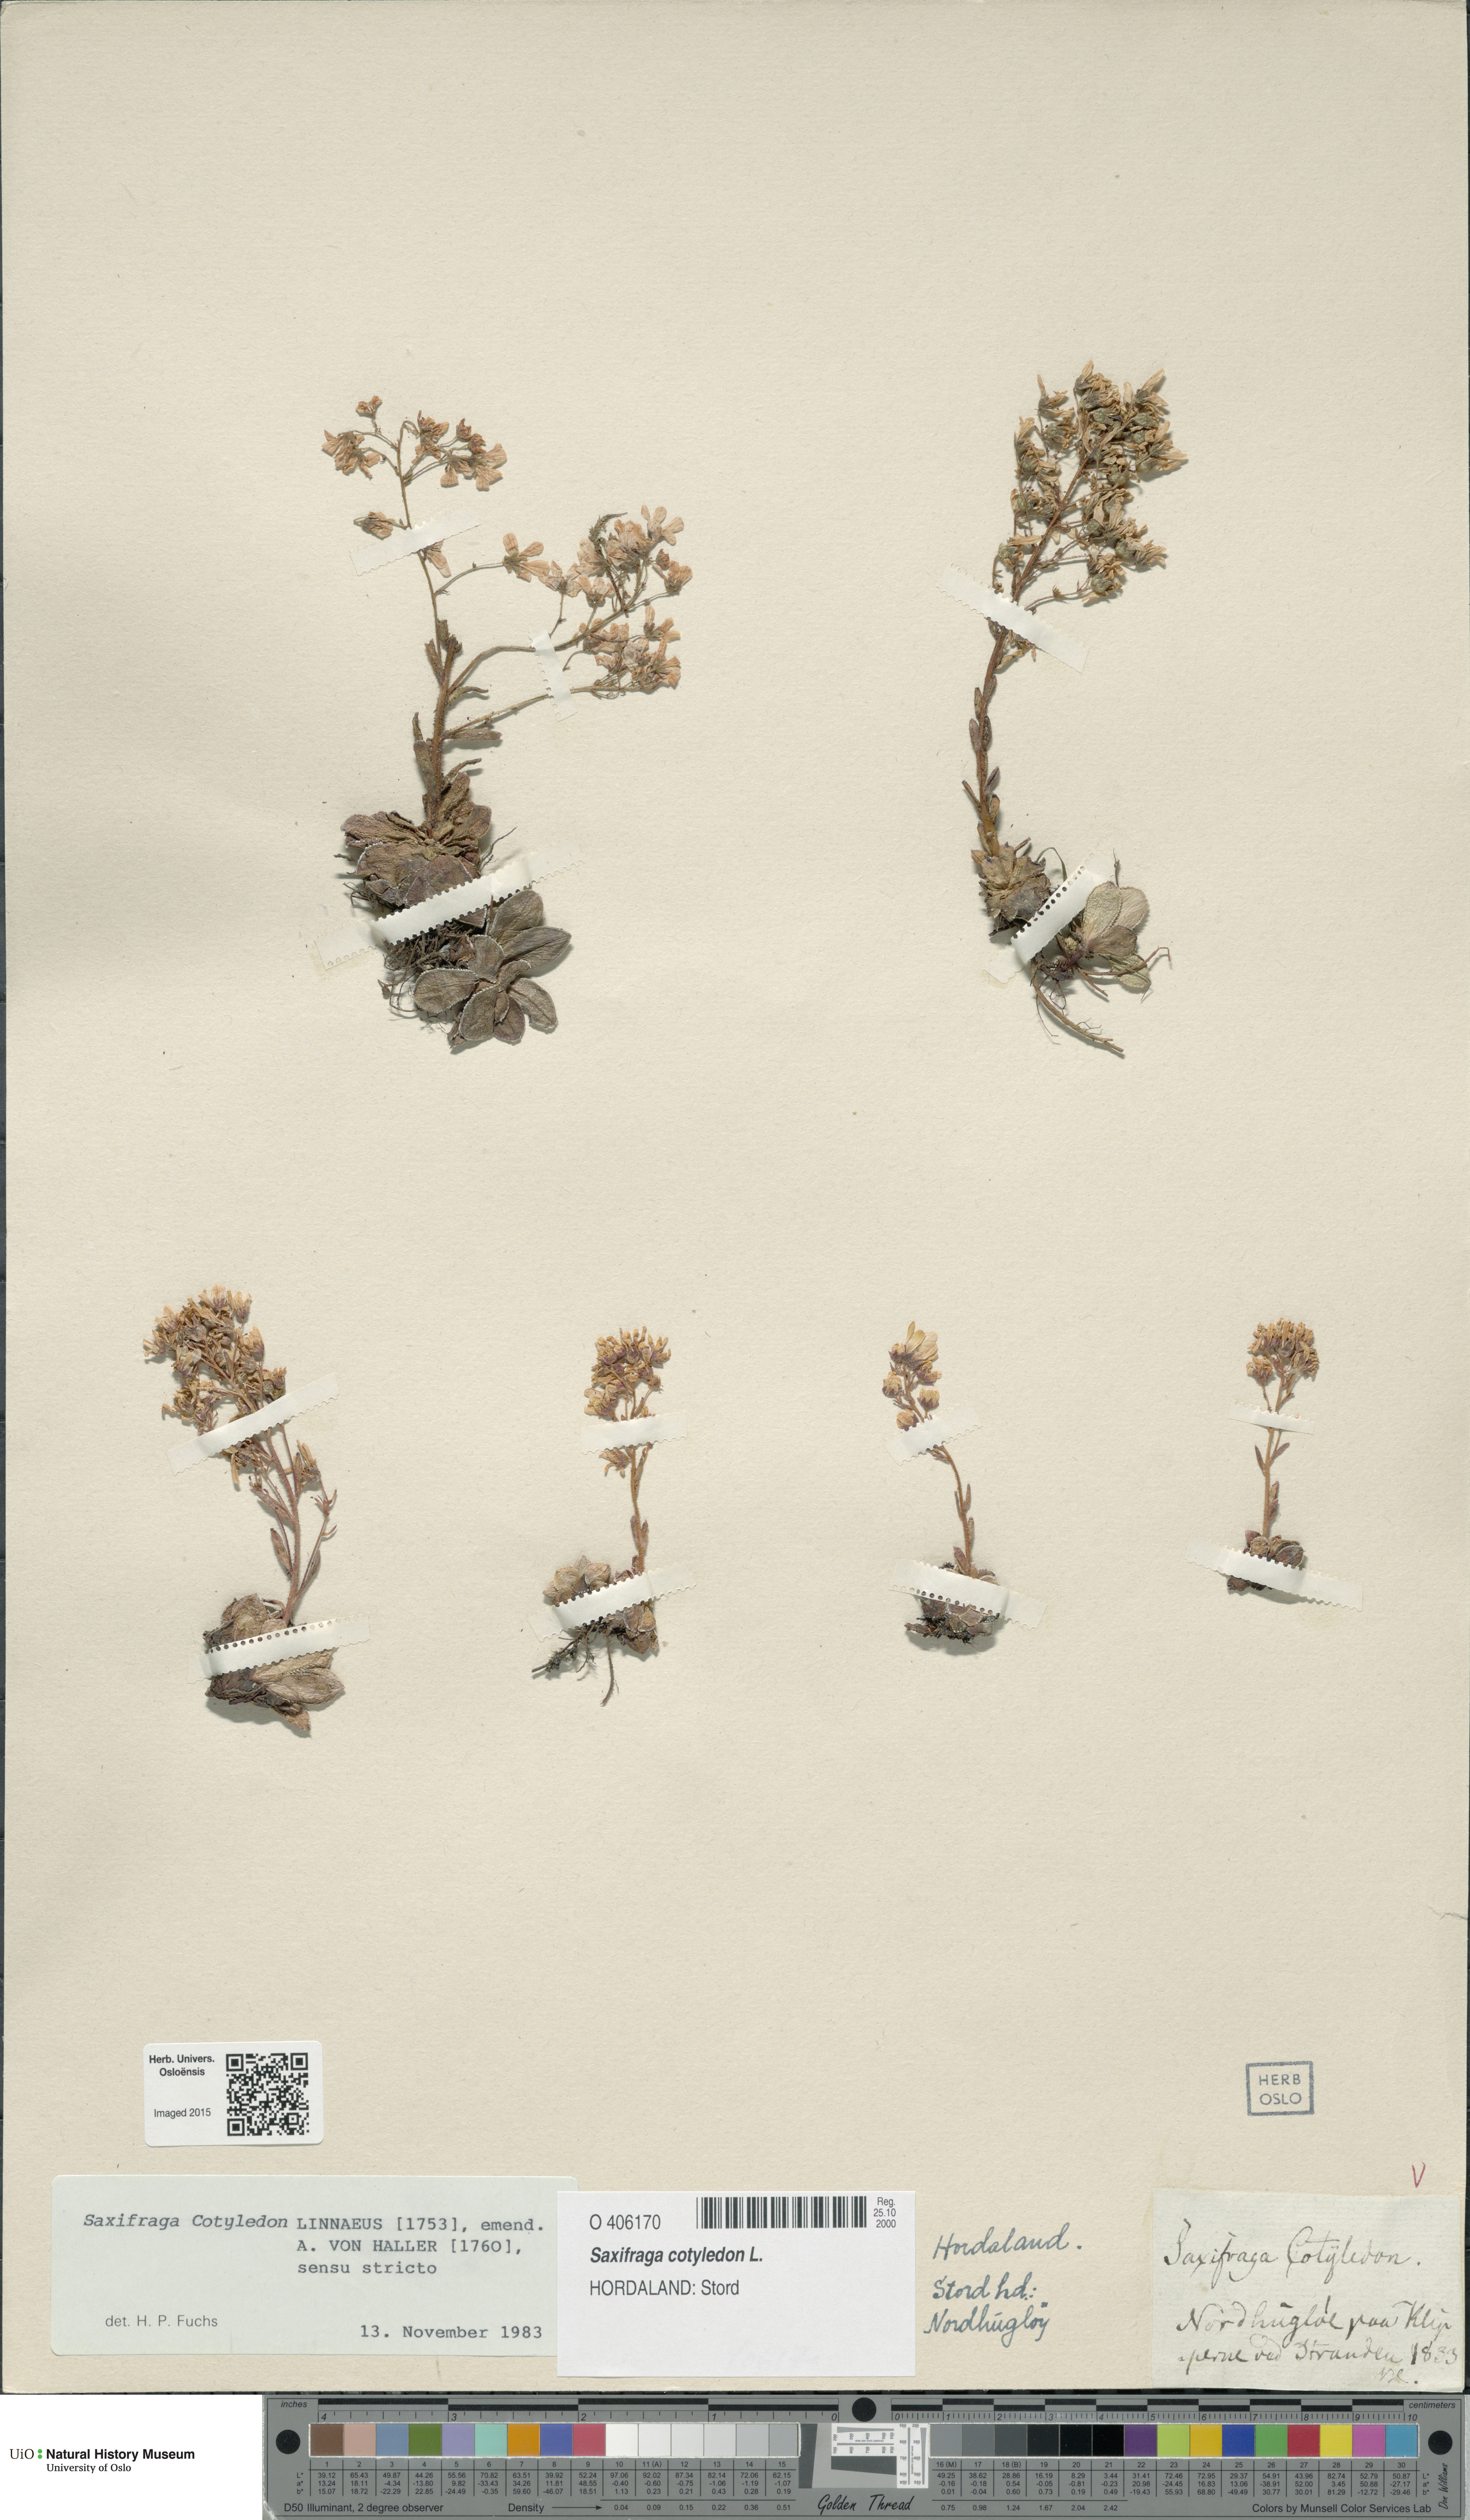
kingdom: Plantae
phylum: Tracheophyta
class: Magnoliopsida
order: Saxifragales
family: Saxifragaceae
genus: Saxifraga
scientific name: Saxifraga cotyledon
